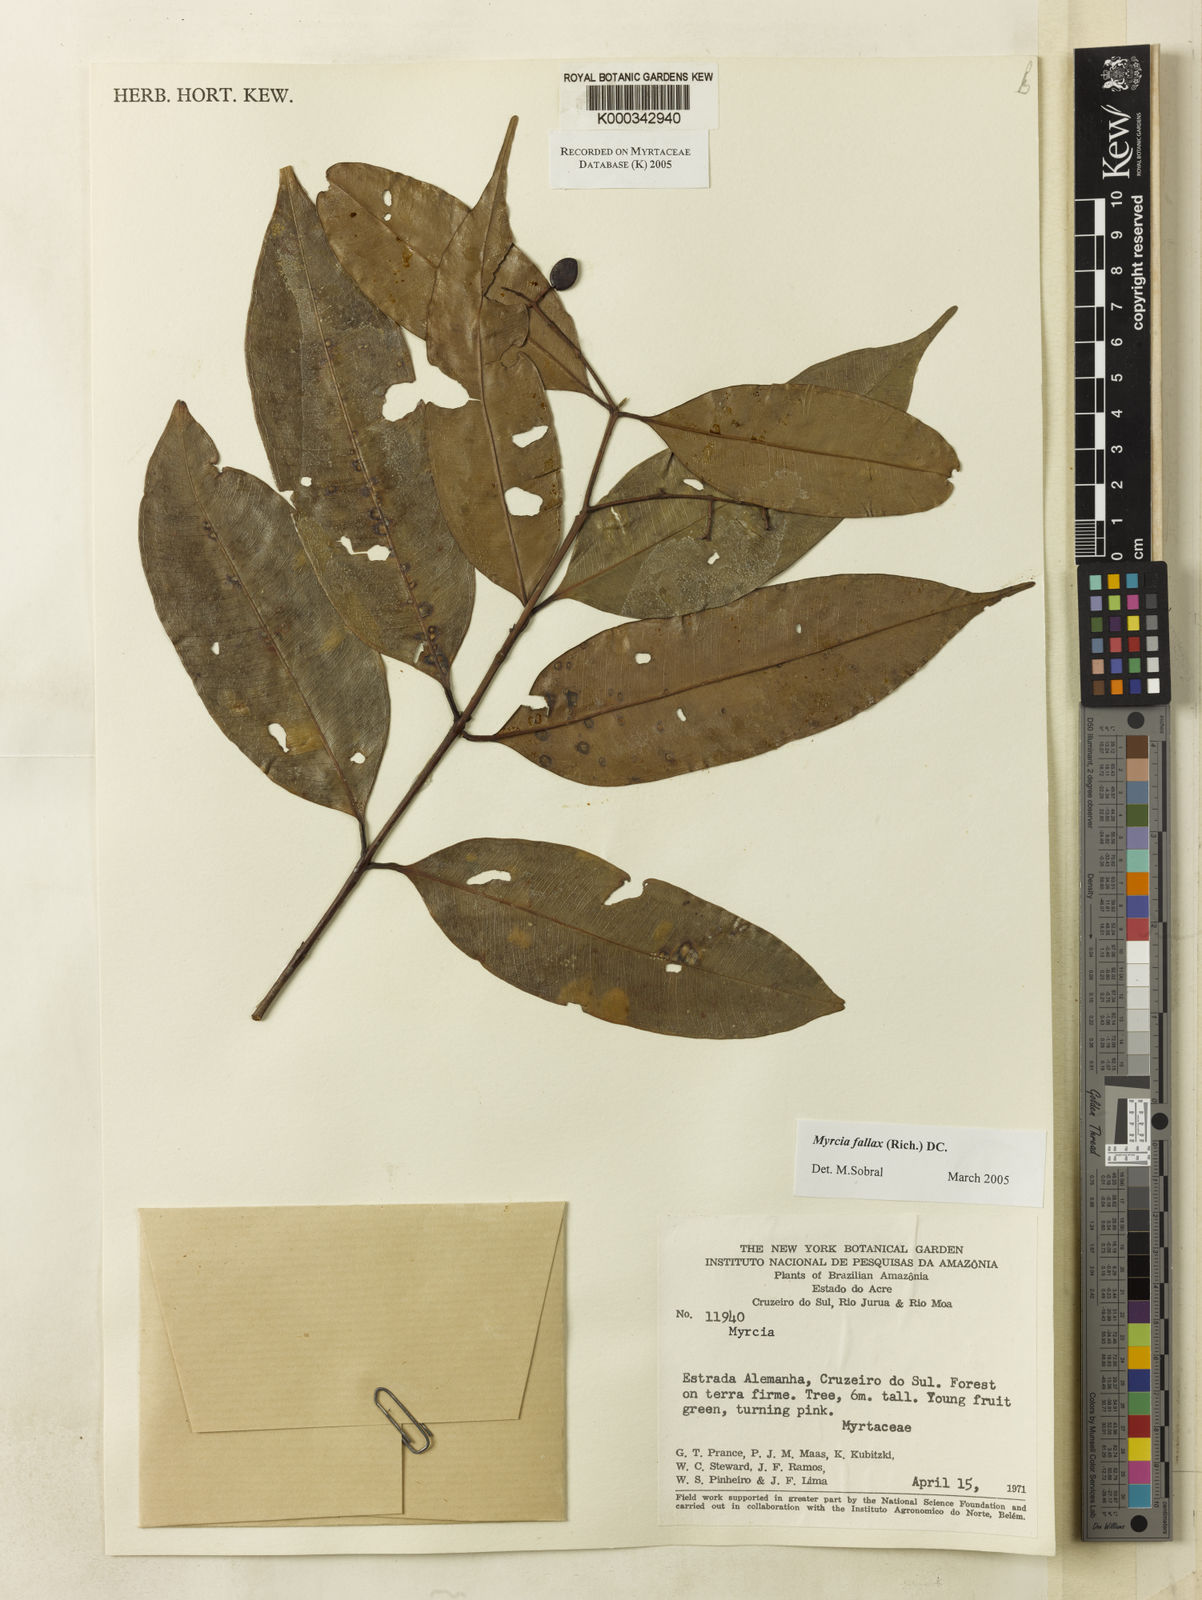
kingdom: Plantae
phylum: Tracheophyta
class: Magnoliopsida
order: Myrtales
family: Myrtaceae
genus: Myrcia
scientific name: Myrcia splendens
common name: Surinam cherry
